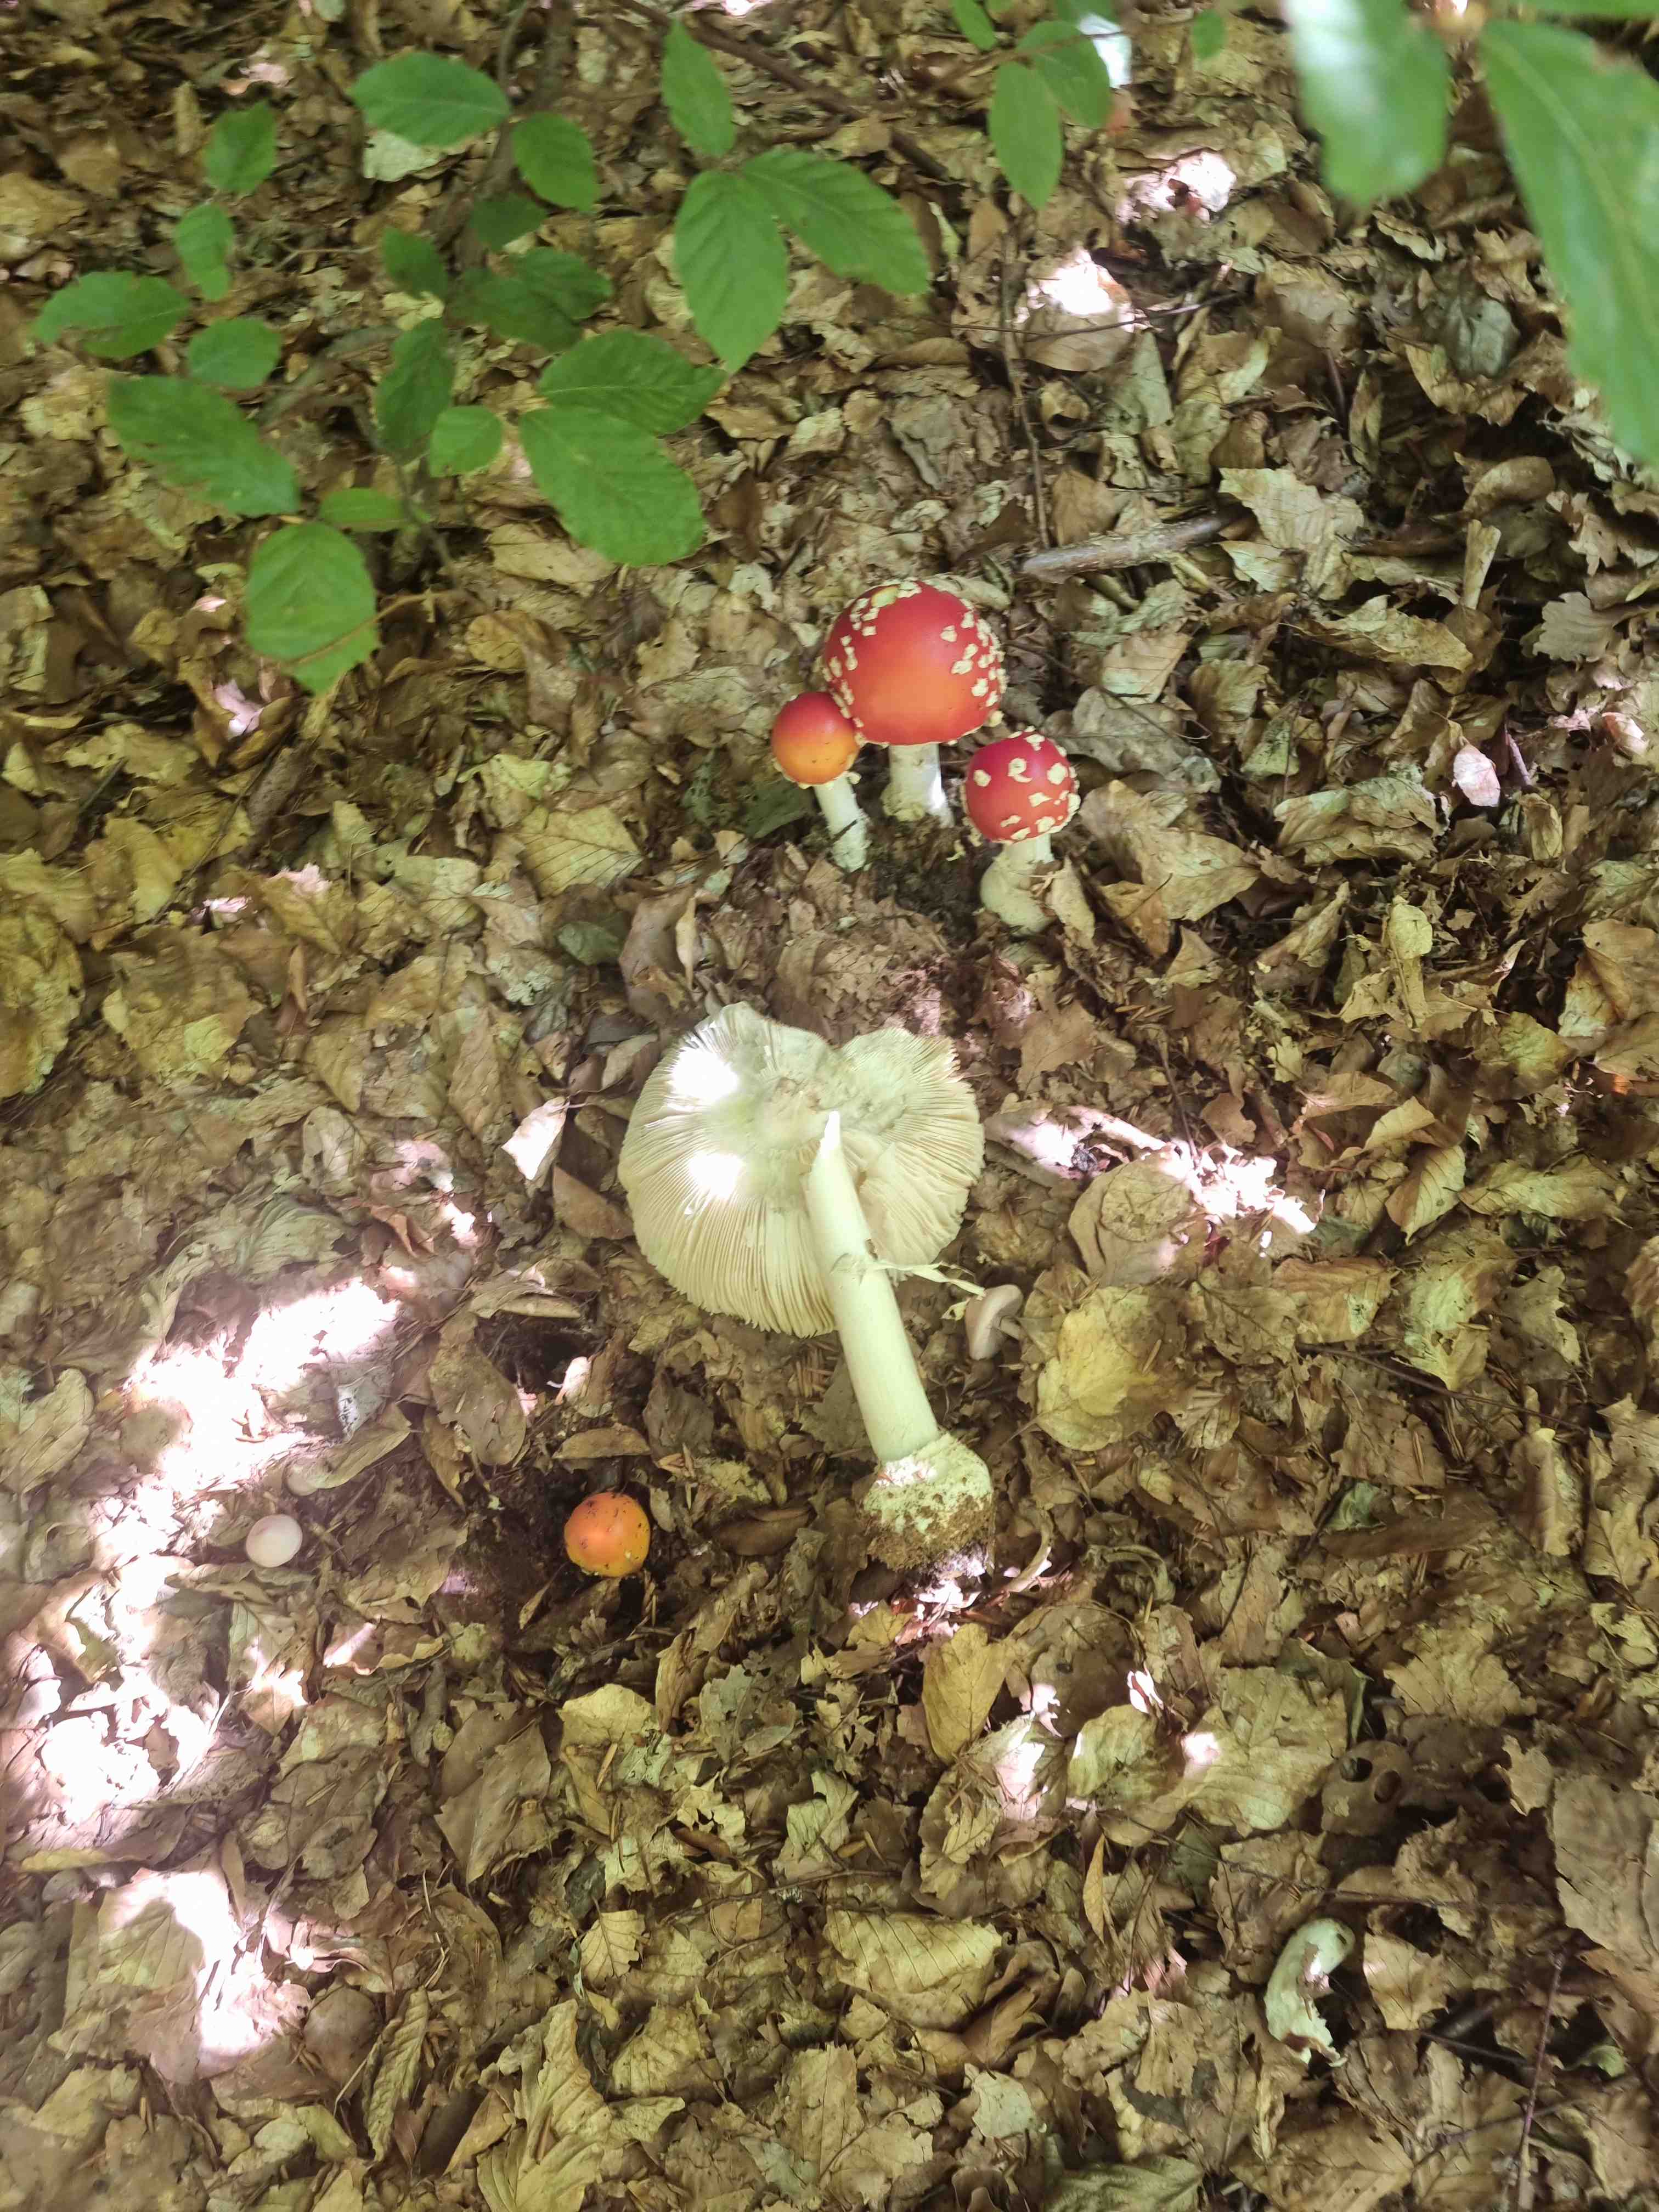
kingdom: Fungi
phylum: Basidiomycota
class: Agaricomycetes
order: Agaricales
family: Amanitaceae
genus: Amanita
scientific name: Amanita muscaria
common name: rød fluesvamp
